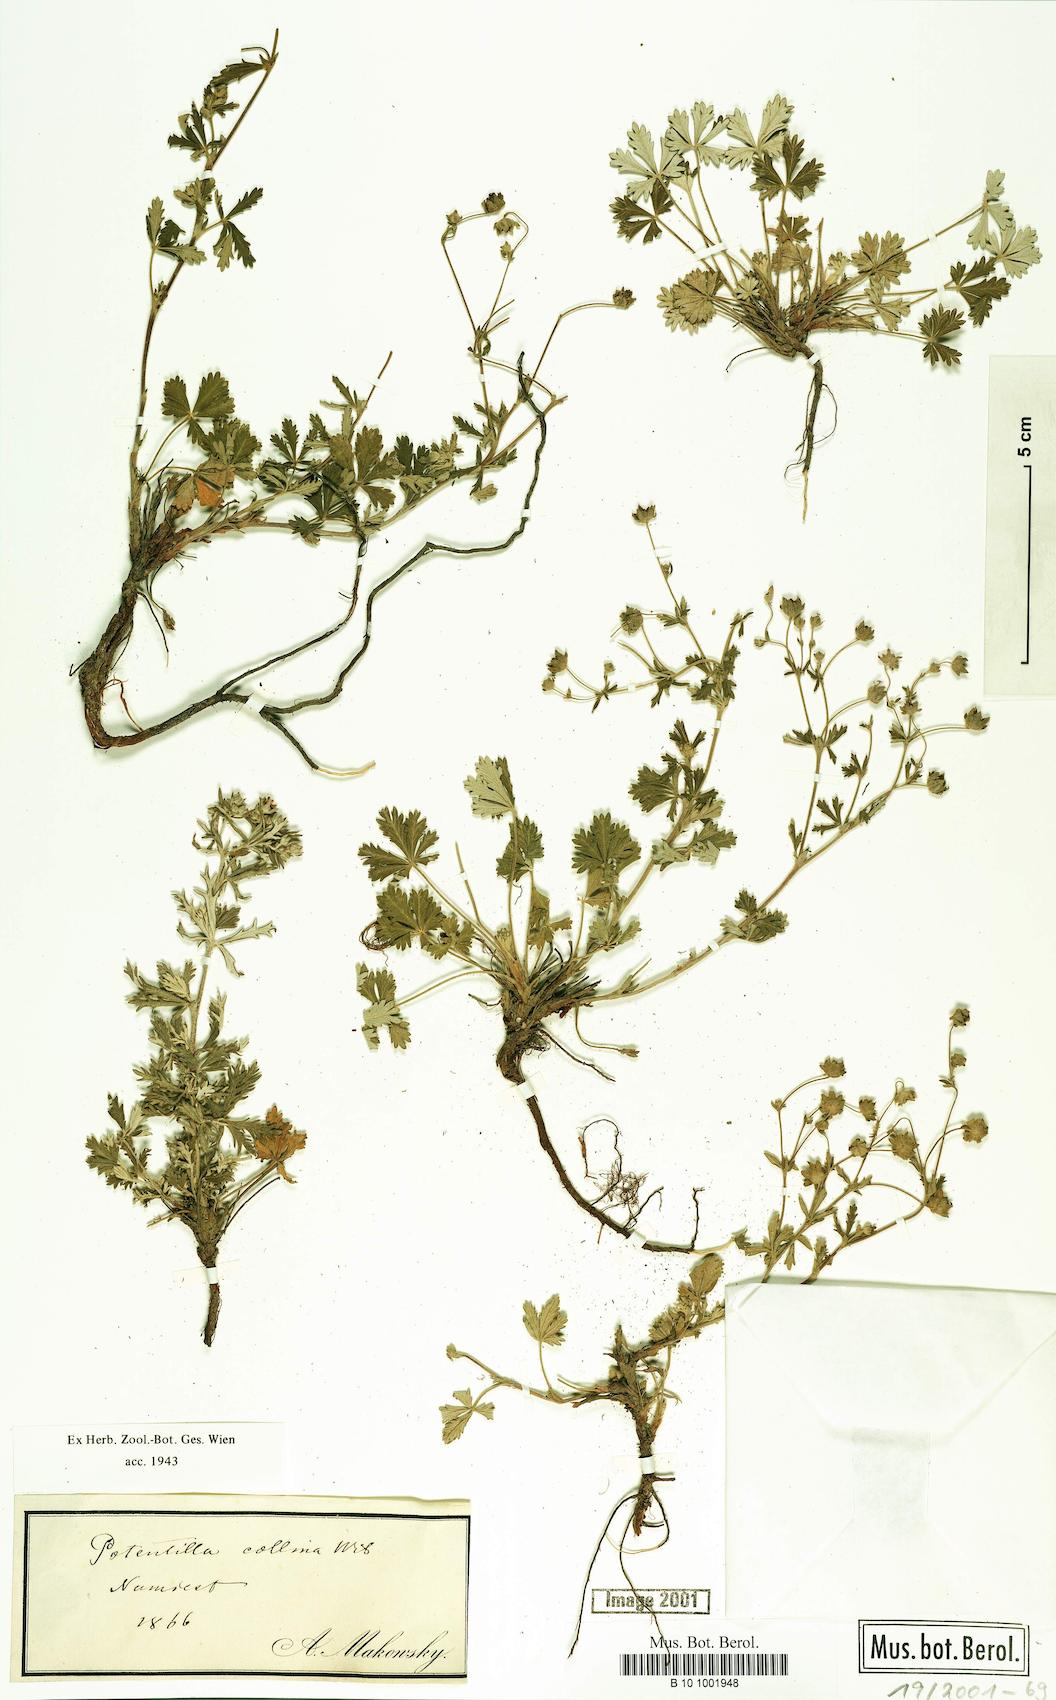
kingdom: Plantae
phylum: Tracheophyta
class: Magnoliopsida
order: Rosales
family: Rosaceae
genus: Potentilla
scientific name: Potentilla collina
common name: Palmleaf cinquefoil
